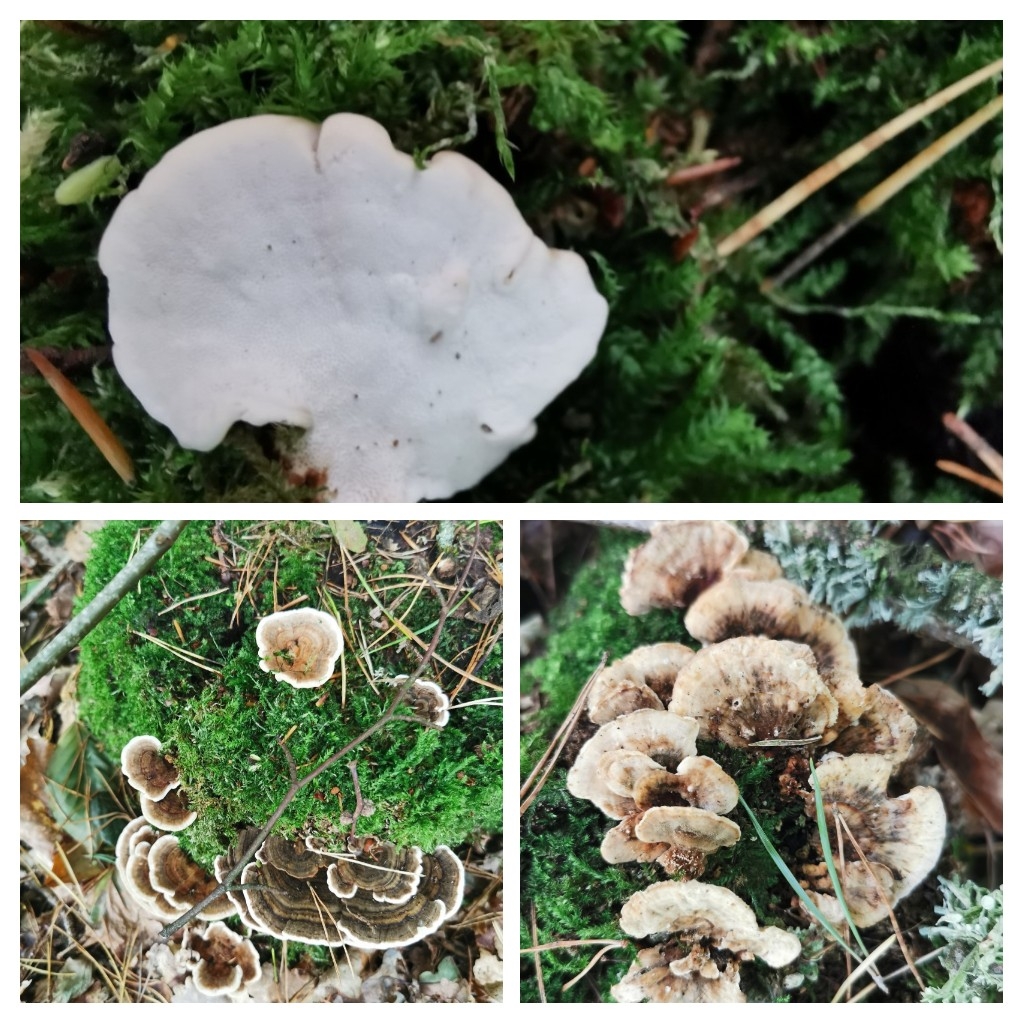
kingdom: Fungi
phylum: Basidiomycota
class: Agaricomycetes
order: Polyporales
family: Polyporaceae
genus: Trametes
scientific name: Trametes versicolor
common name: broget læderporesvamp
